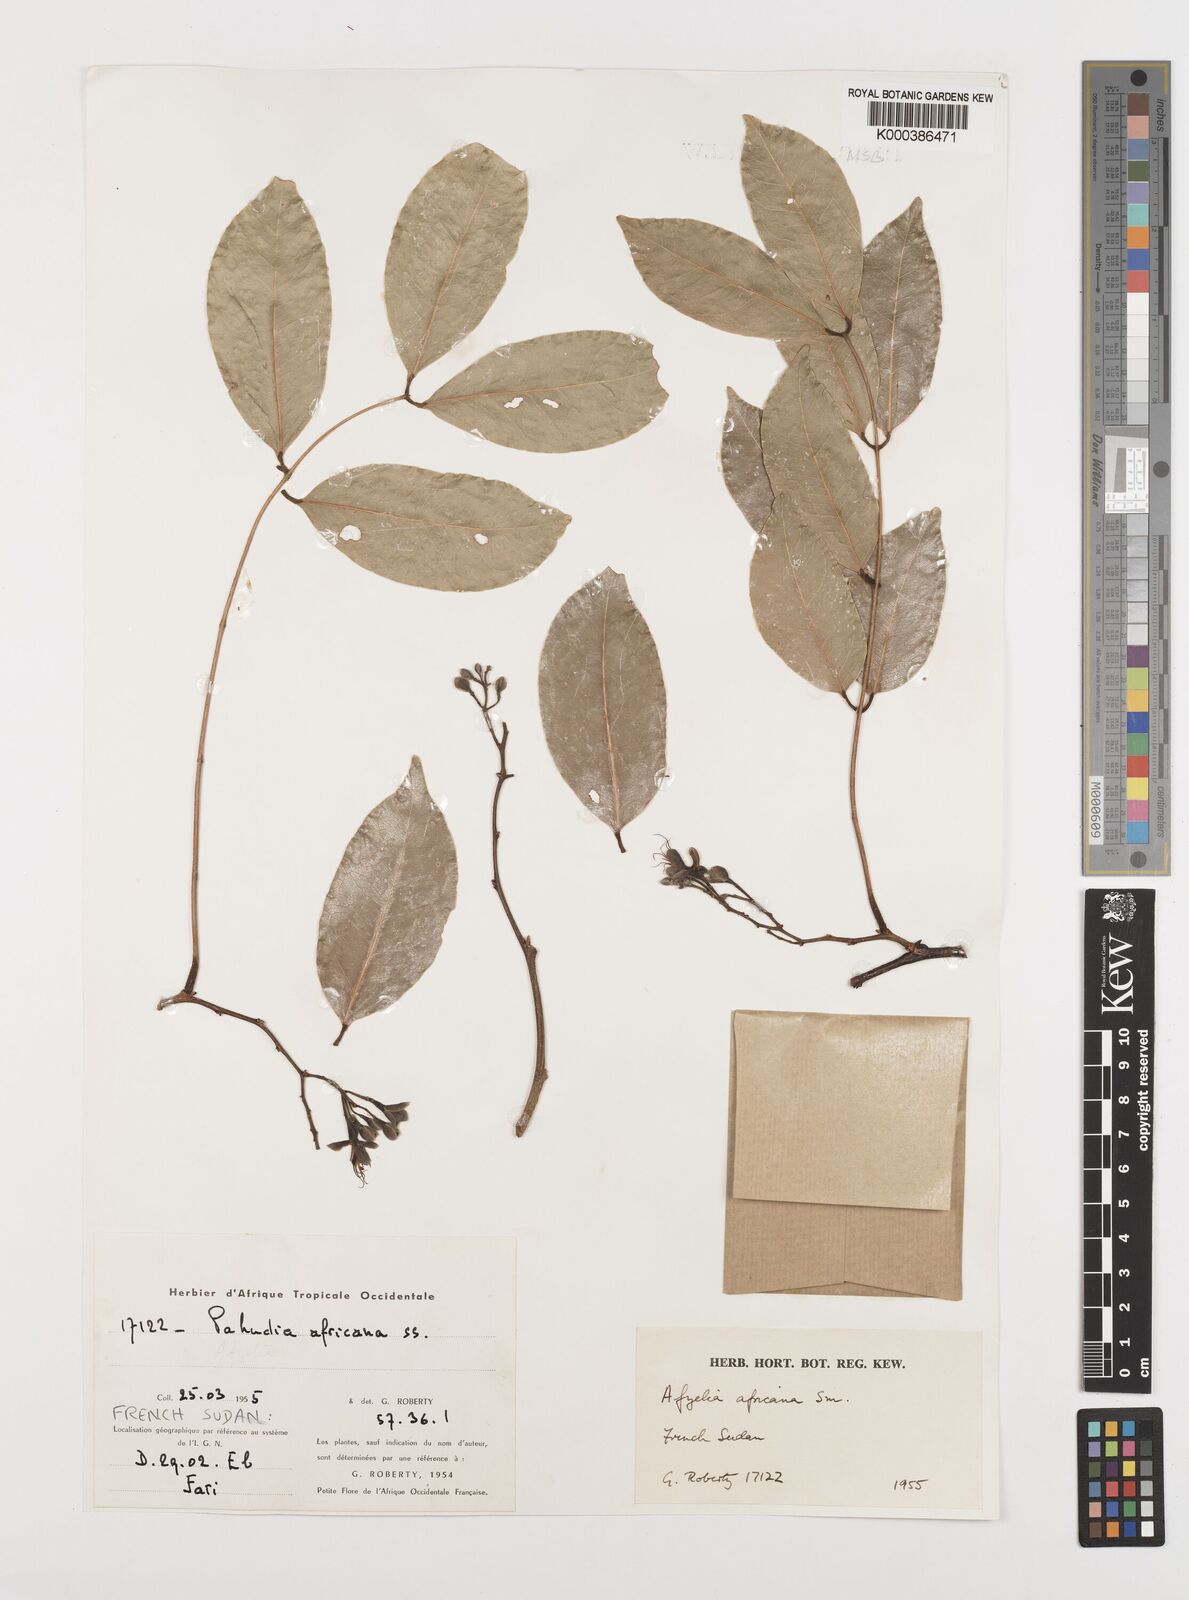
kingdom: Plantae
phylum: Tracheophyta
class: Magnoliopsida
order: Fabales
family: Fabaceae
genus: Afzelia
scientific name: Afzelia africana
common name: African-mahogany
